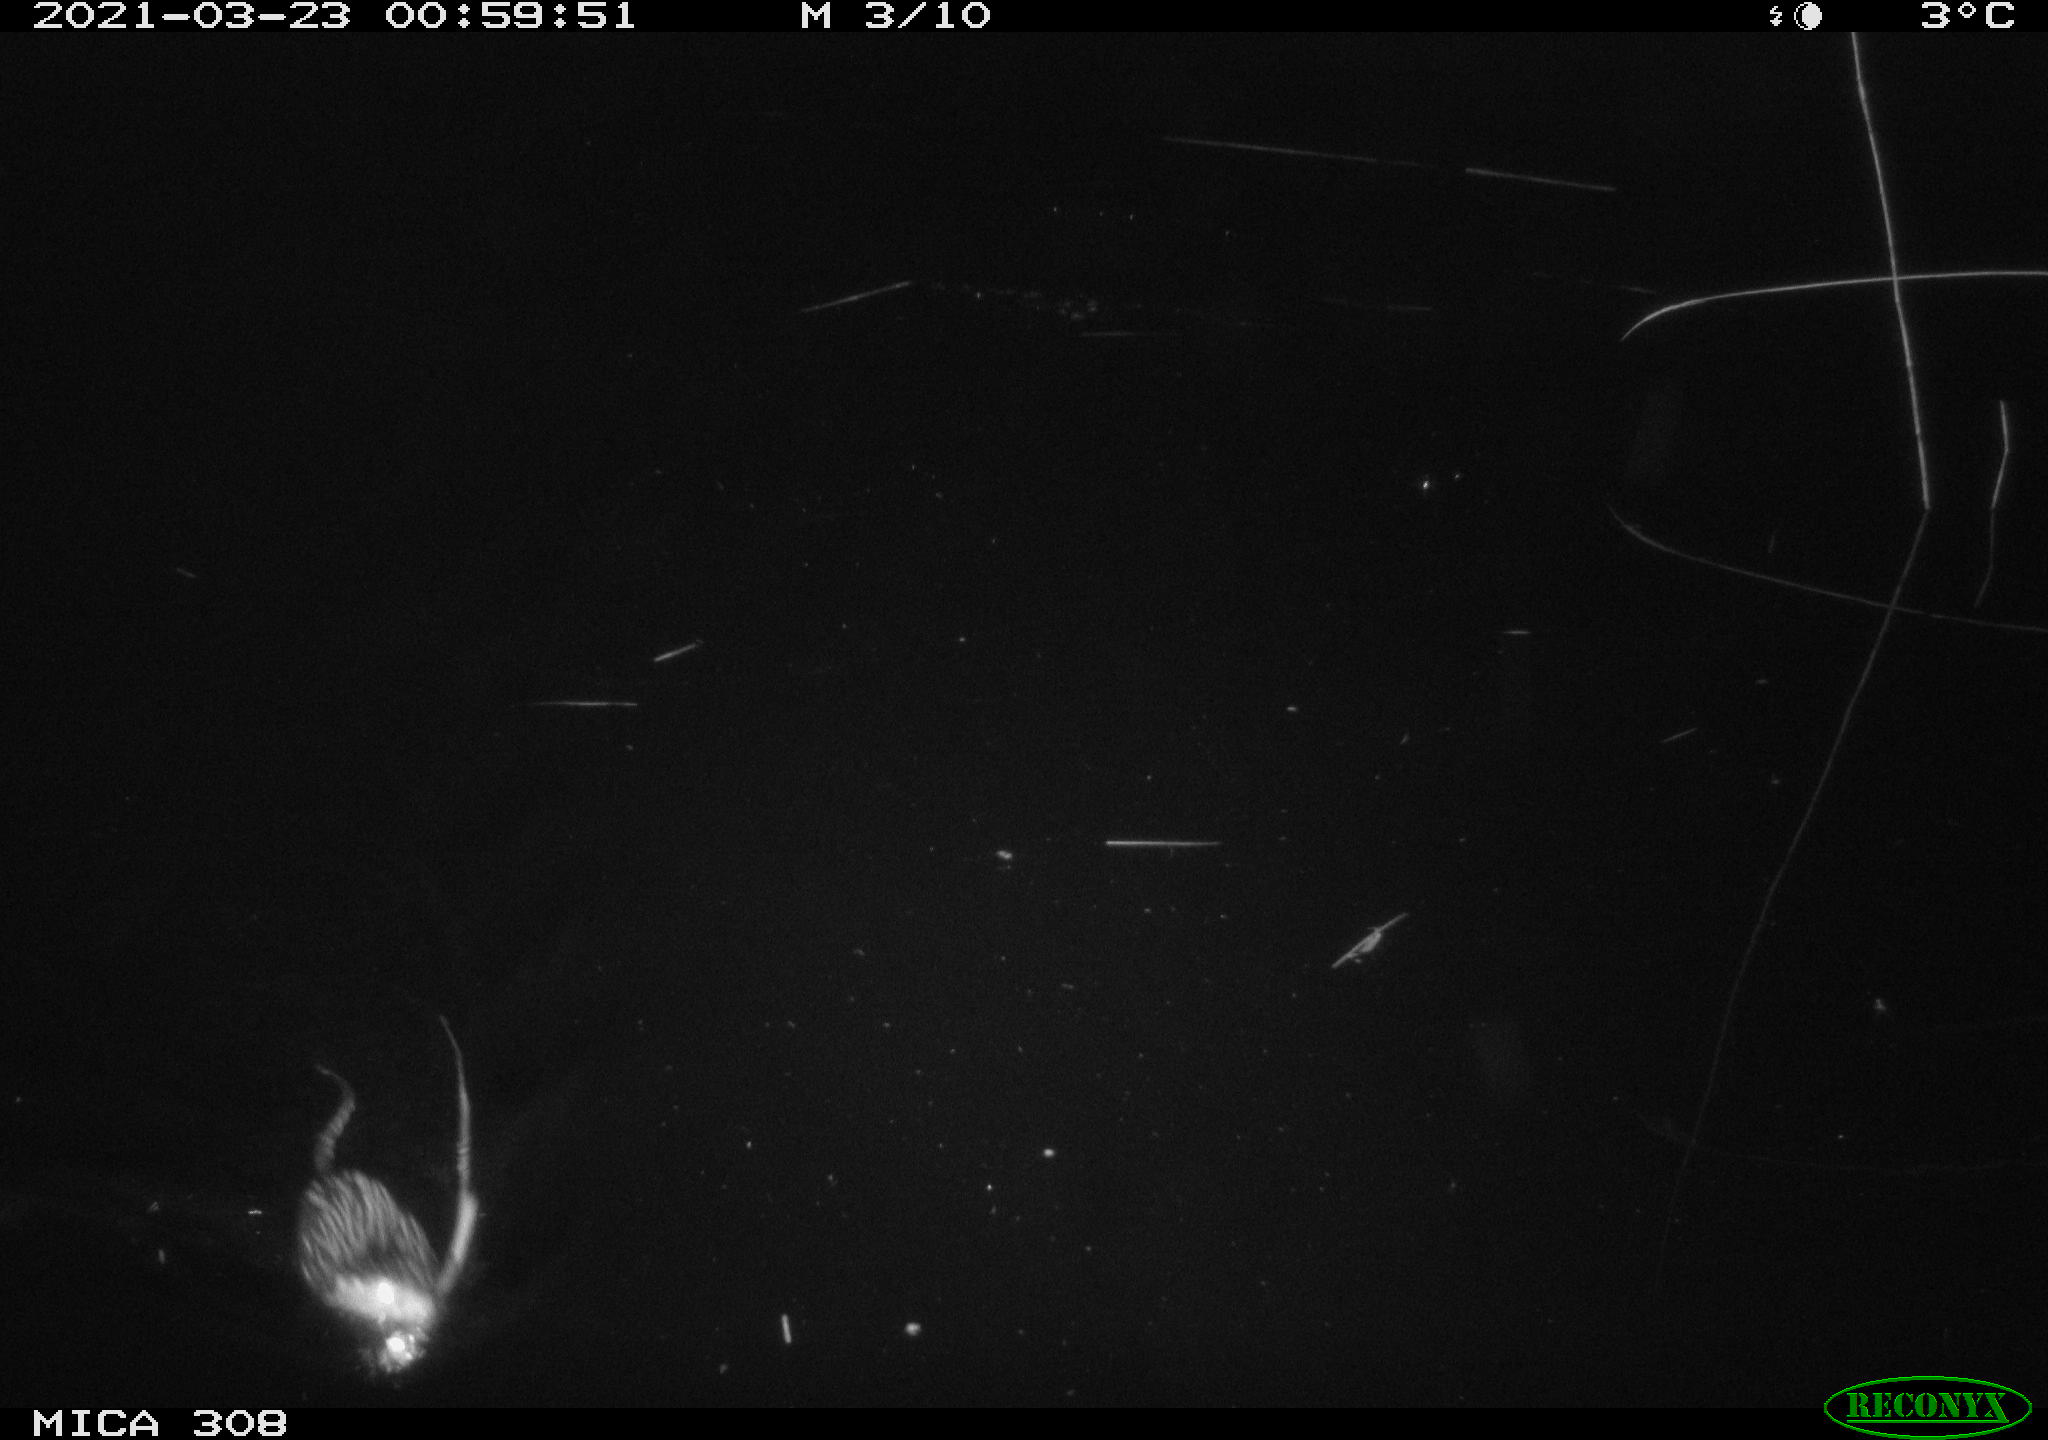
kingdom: Animalia
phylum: Chordata
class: Mammalia
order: Rodentia
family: Cricetidae
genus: Ondatra
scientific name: Ondatra zibethicus
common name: Muskrat
